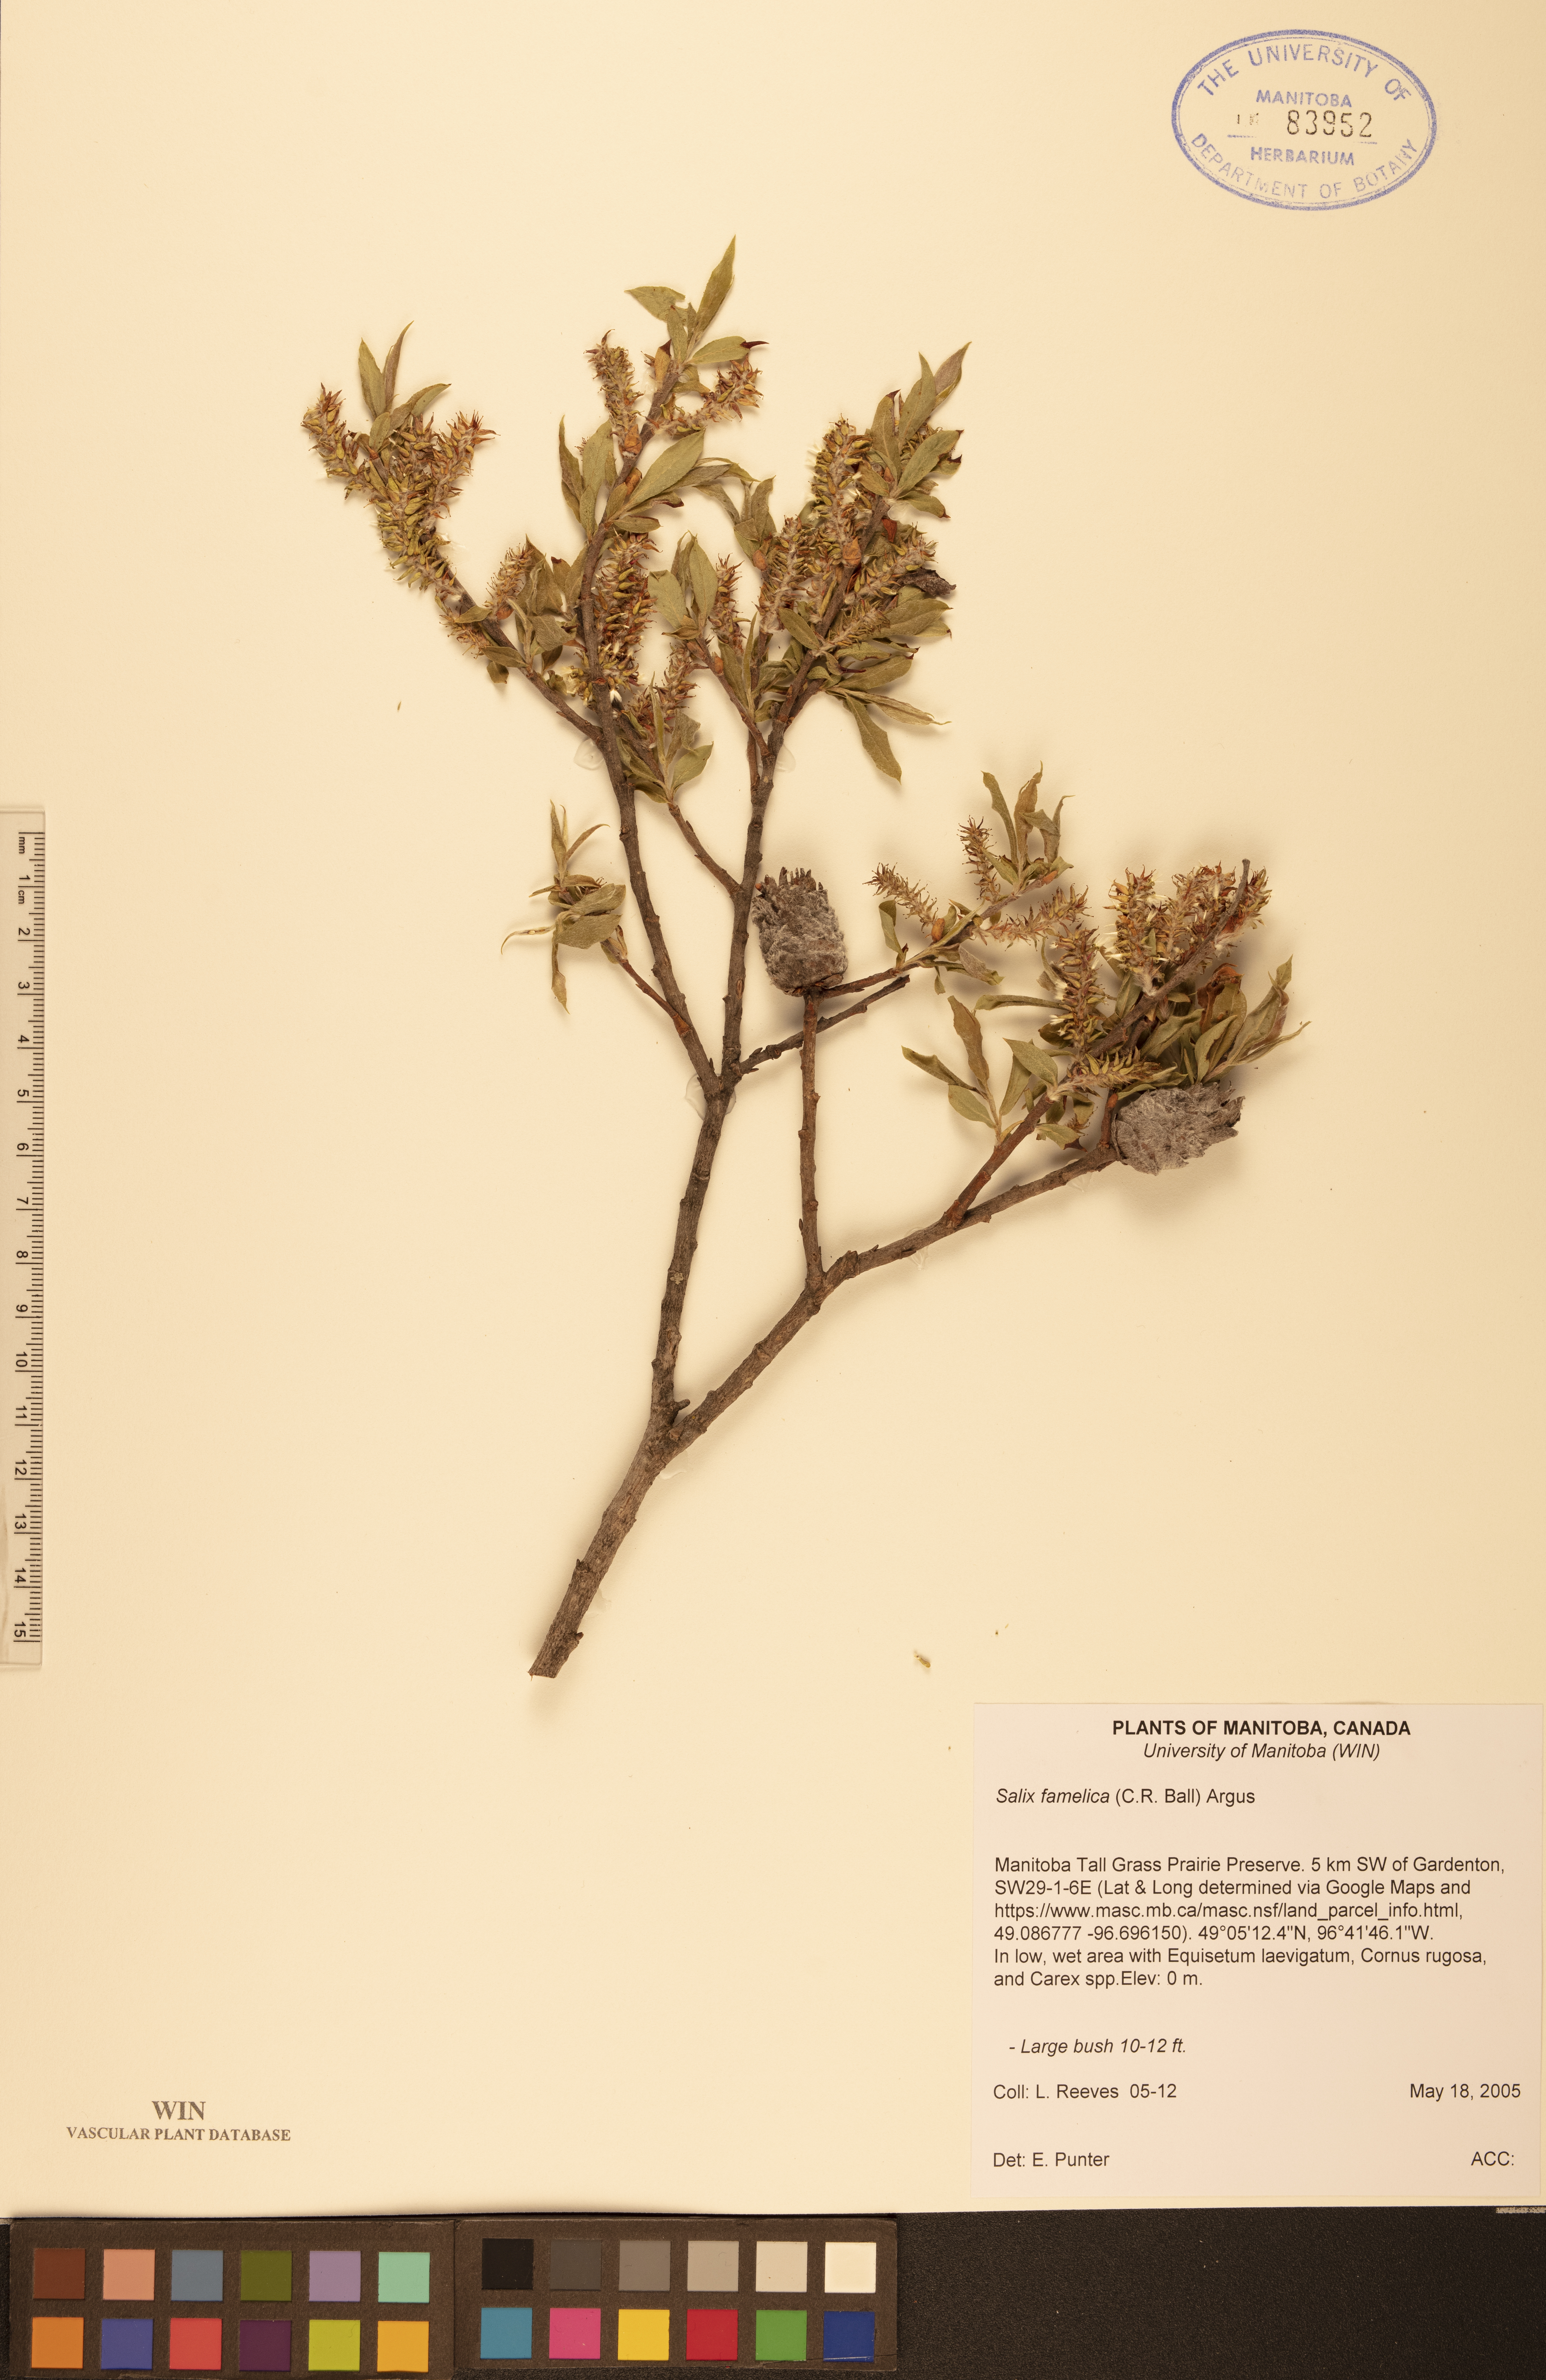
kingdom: Plantae
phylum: Tracheophyta
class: Magnoliopsida
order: Malpighiales
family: Salicaceae
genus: Salix
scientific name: Salix famelica
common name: Hungry willow
